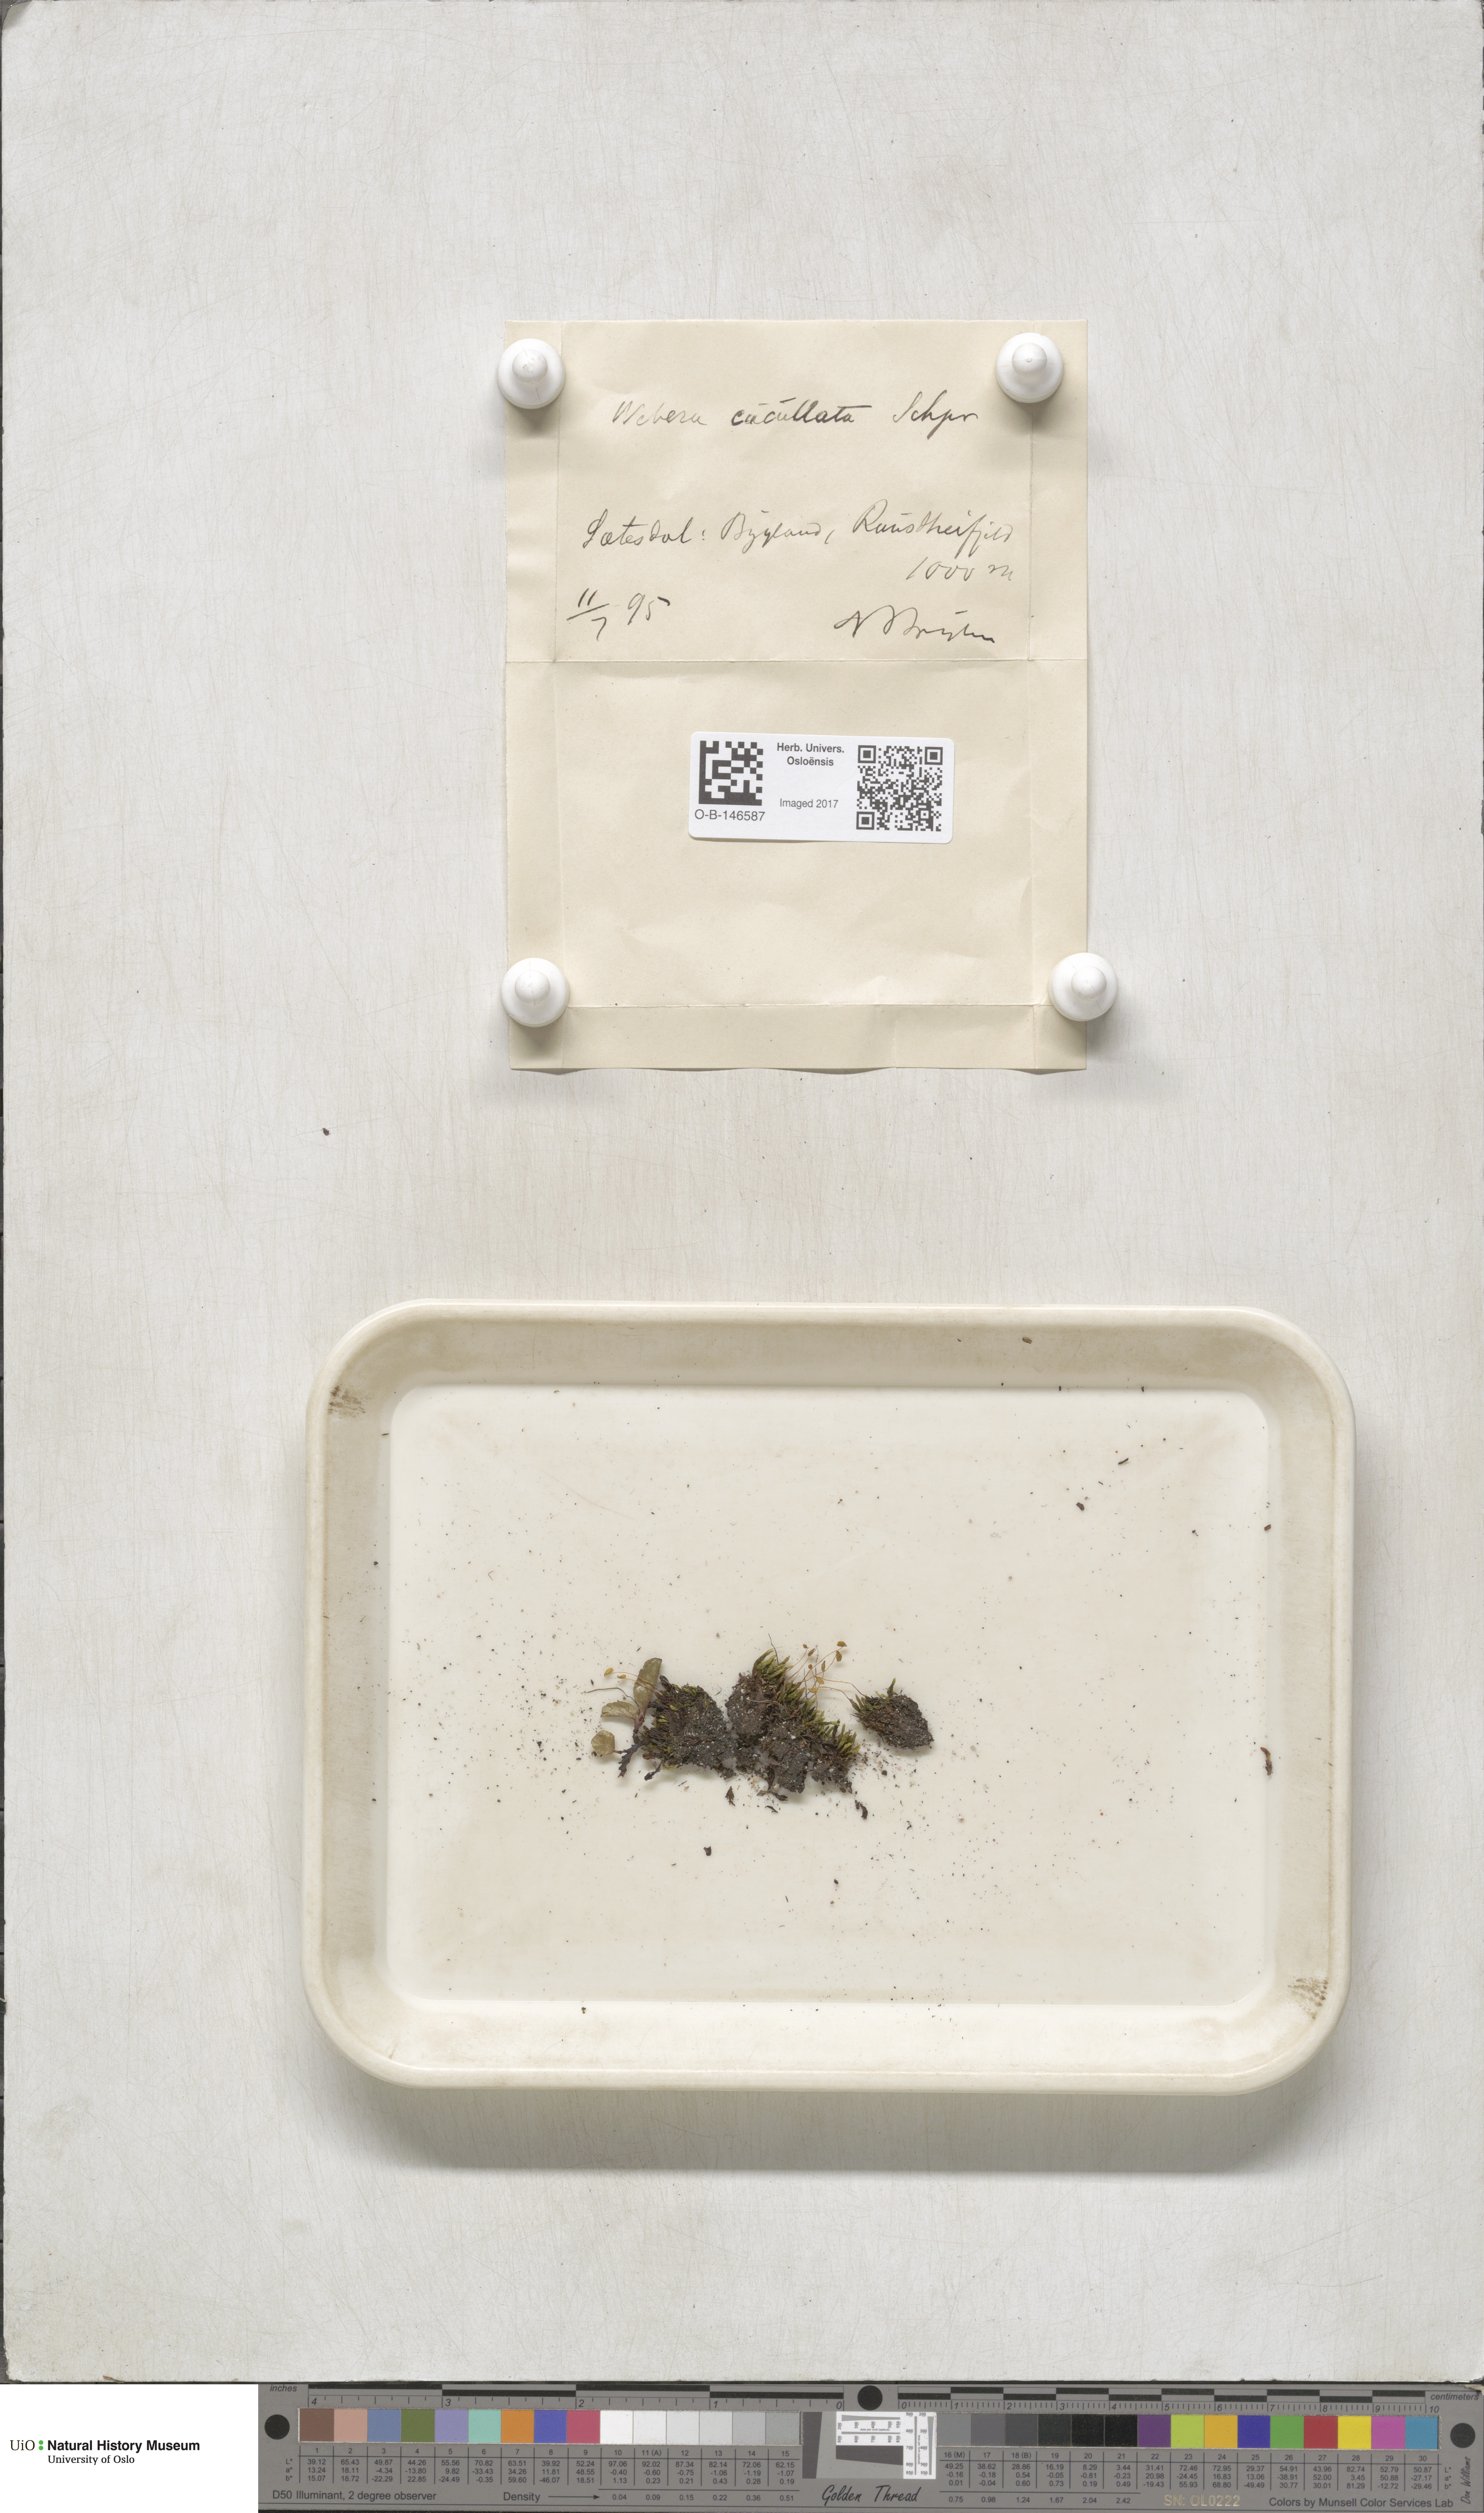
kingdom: Plantae
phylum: Bryophyta
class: Bryopsida
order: Bryales
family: Mniaceae
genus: Pohlia
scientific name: Pohlia obtusifolia
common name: Blunt nodding moss
